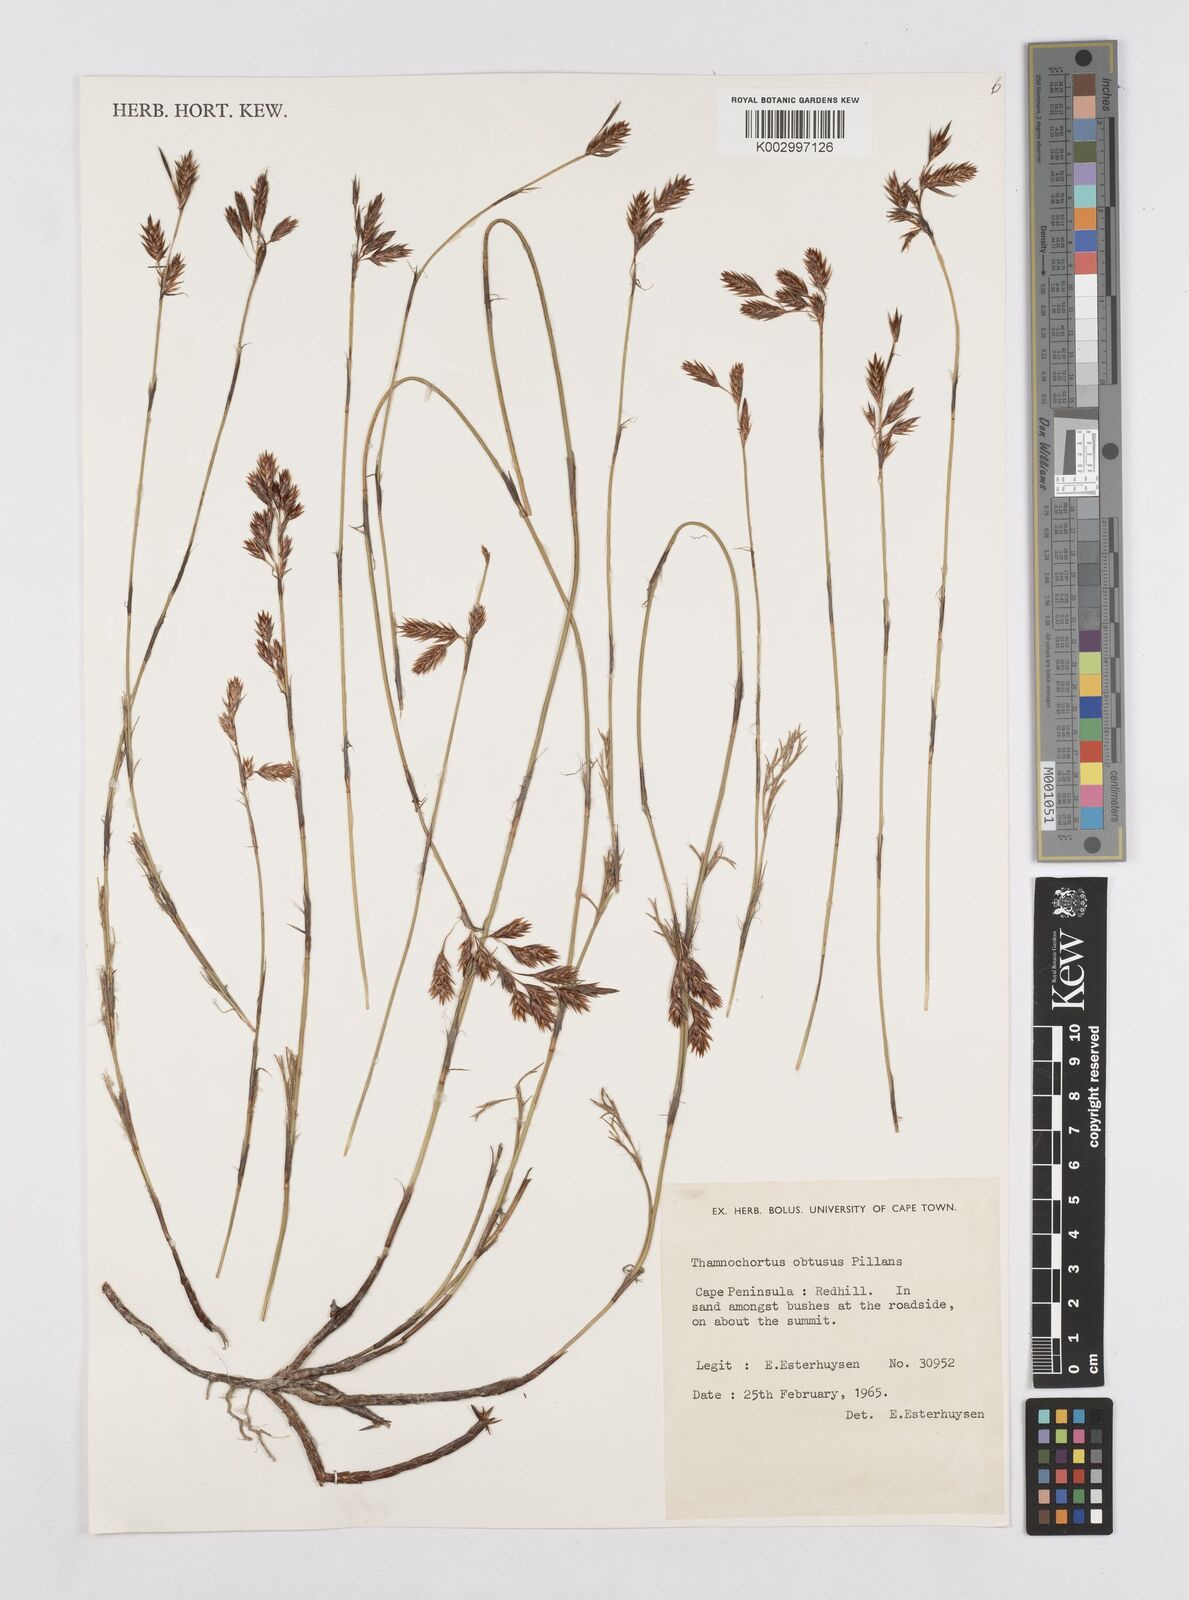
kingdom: Plantae
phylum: Tracheophyta
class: Liliopsida
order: Poales
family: Restionaceae
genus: Thamnochortus
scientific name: Thamnochortus obtusus
